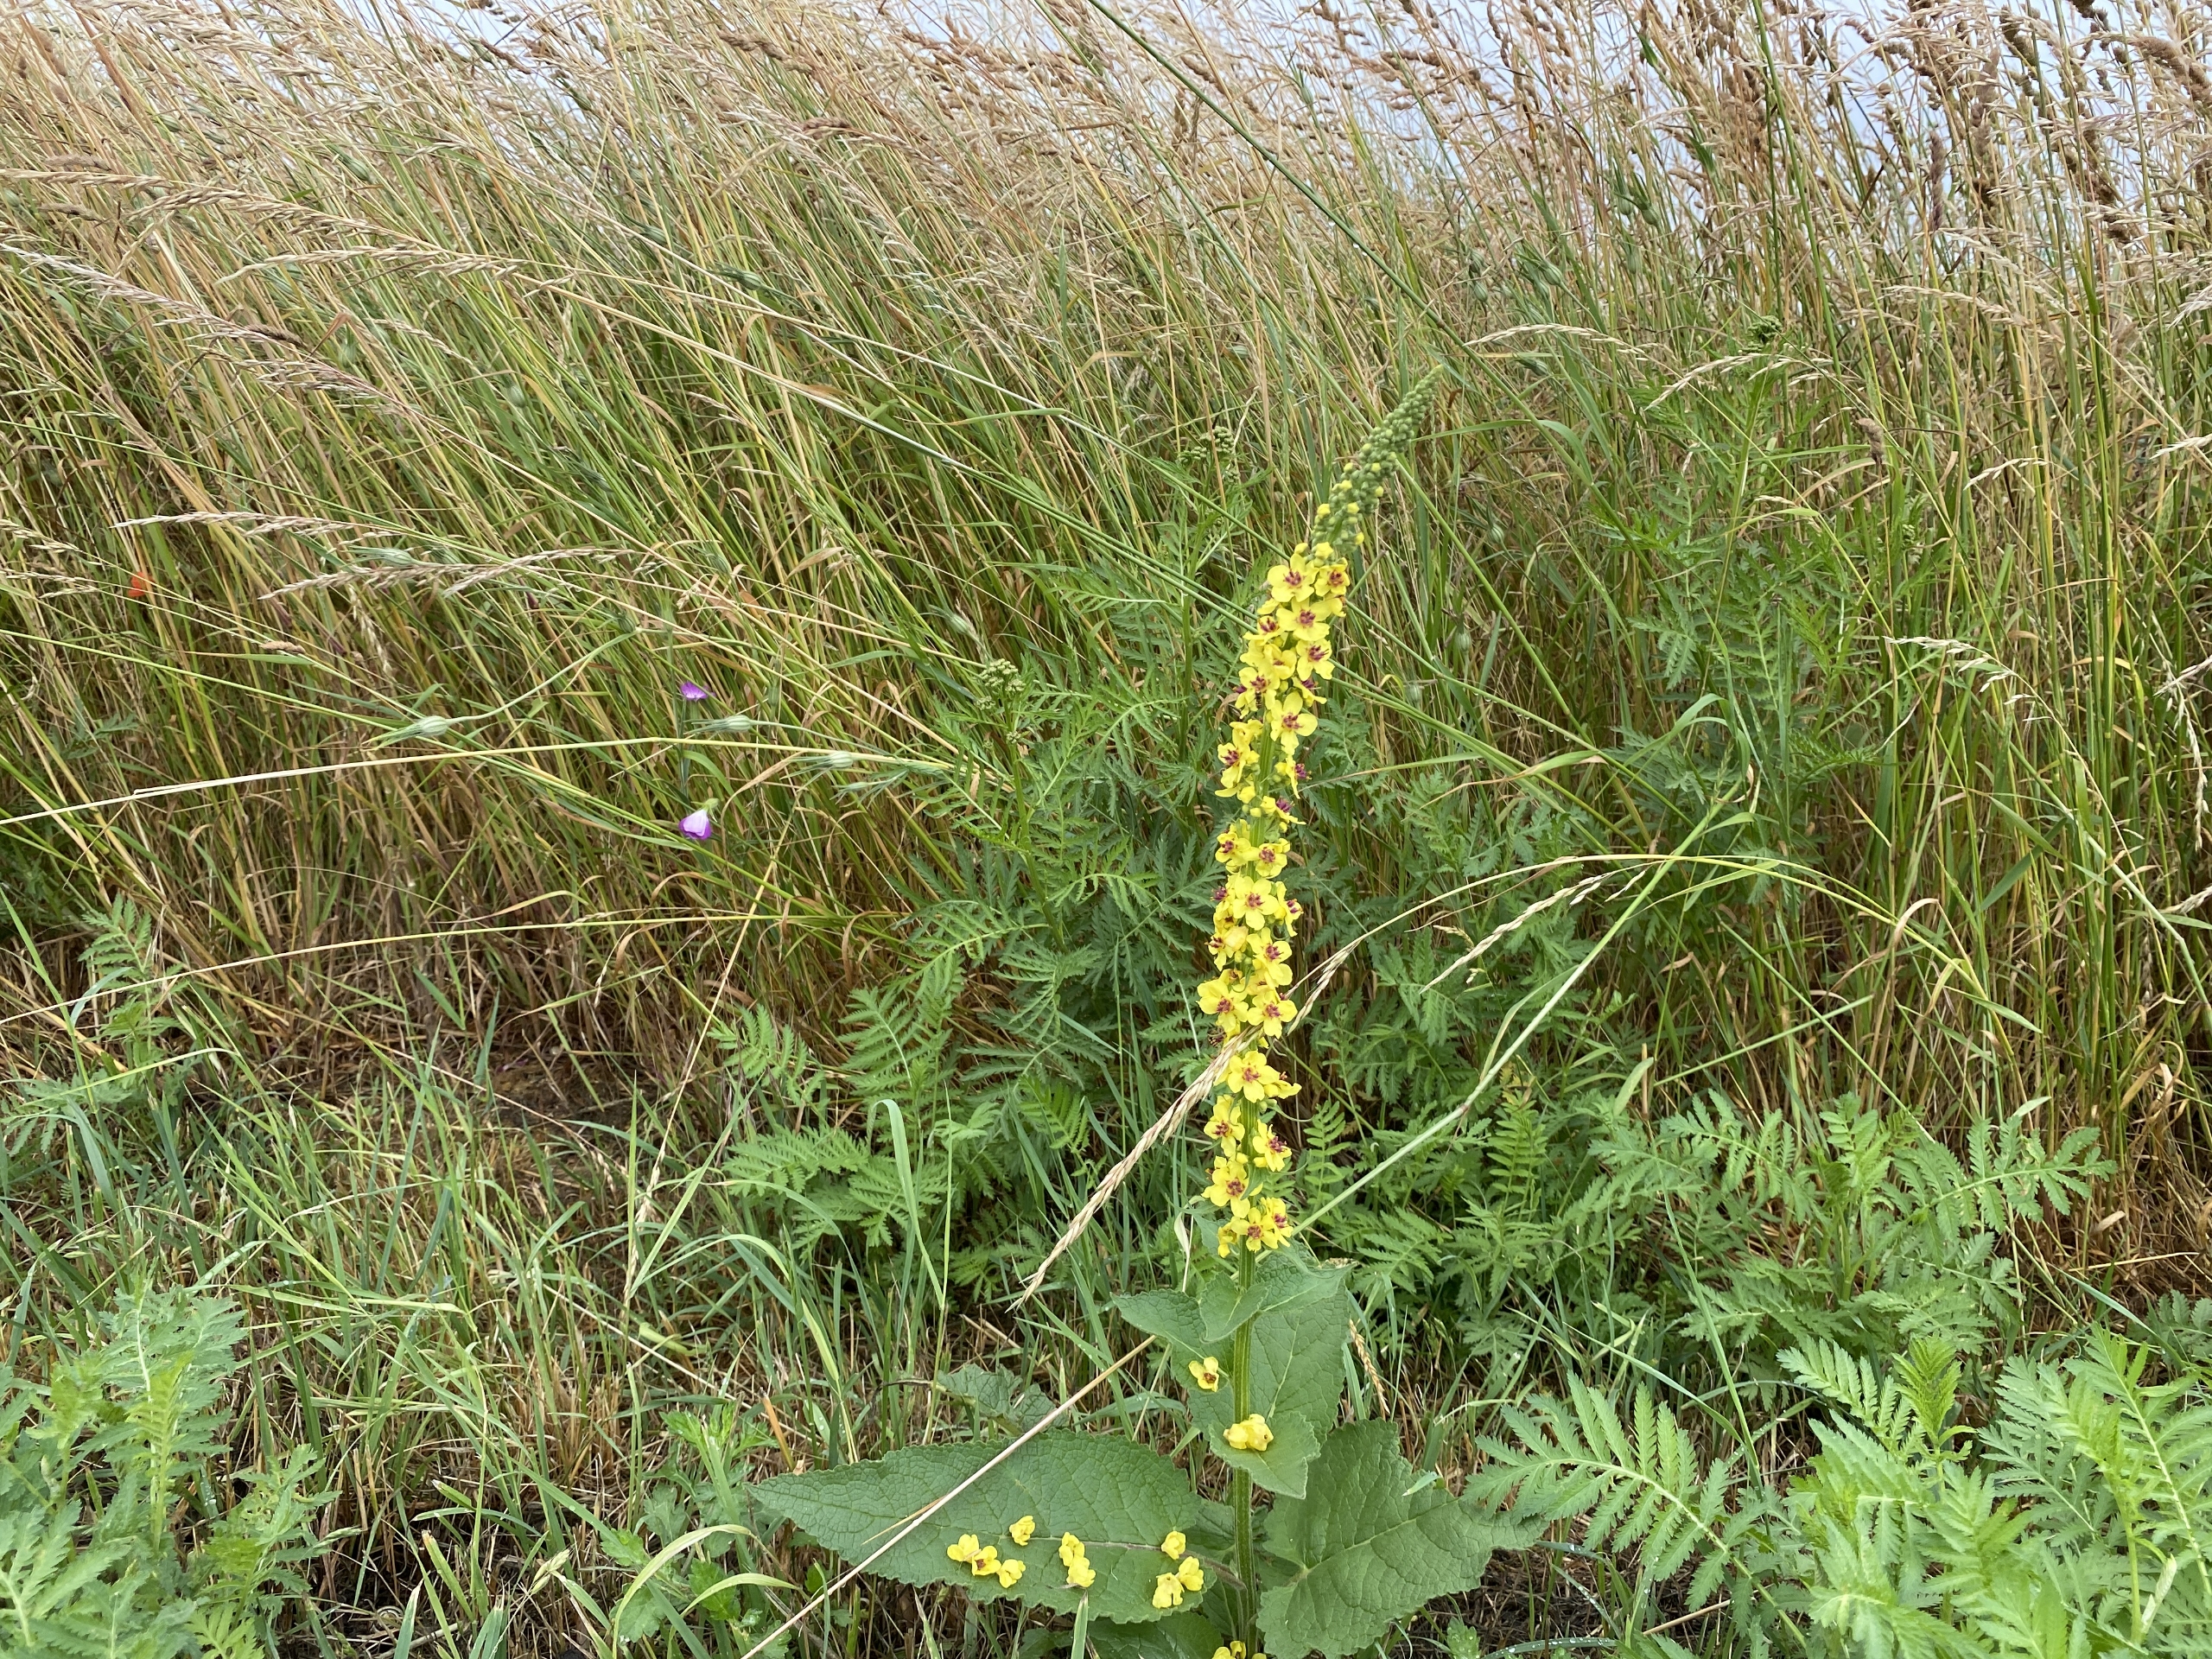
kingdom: Plantae
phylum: Tracheophyta
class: Magnoliopsida
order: Lamiales
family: Scrophulariaceae
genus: Verbascum
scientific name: Verbascum nigrum
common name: Mørk kongelys
